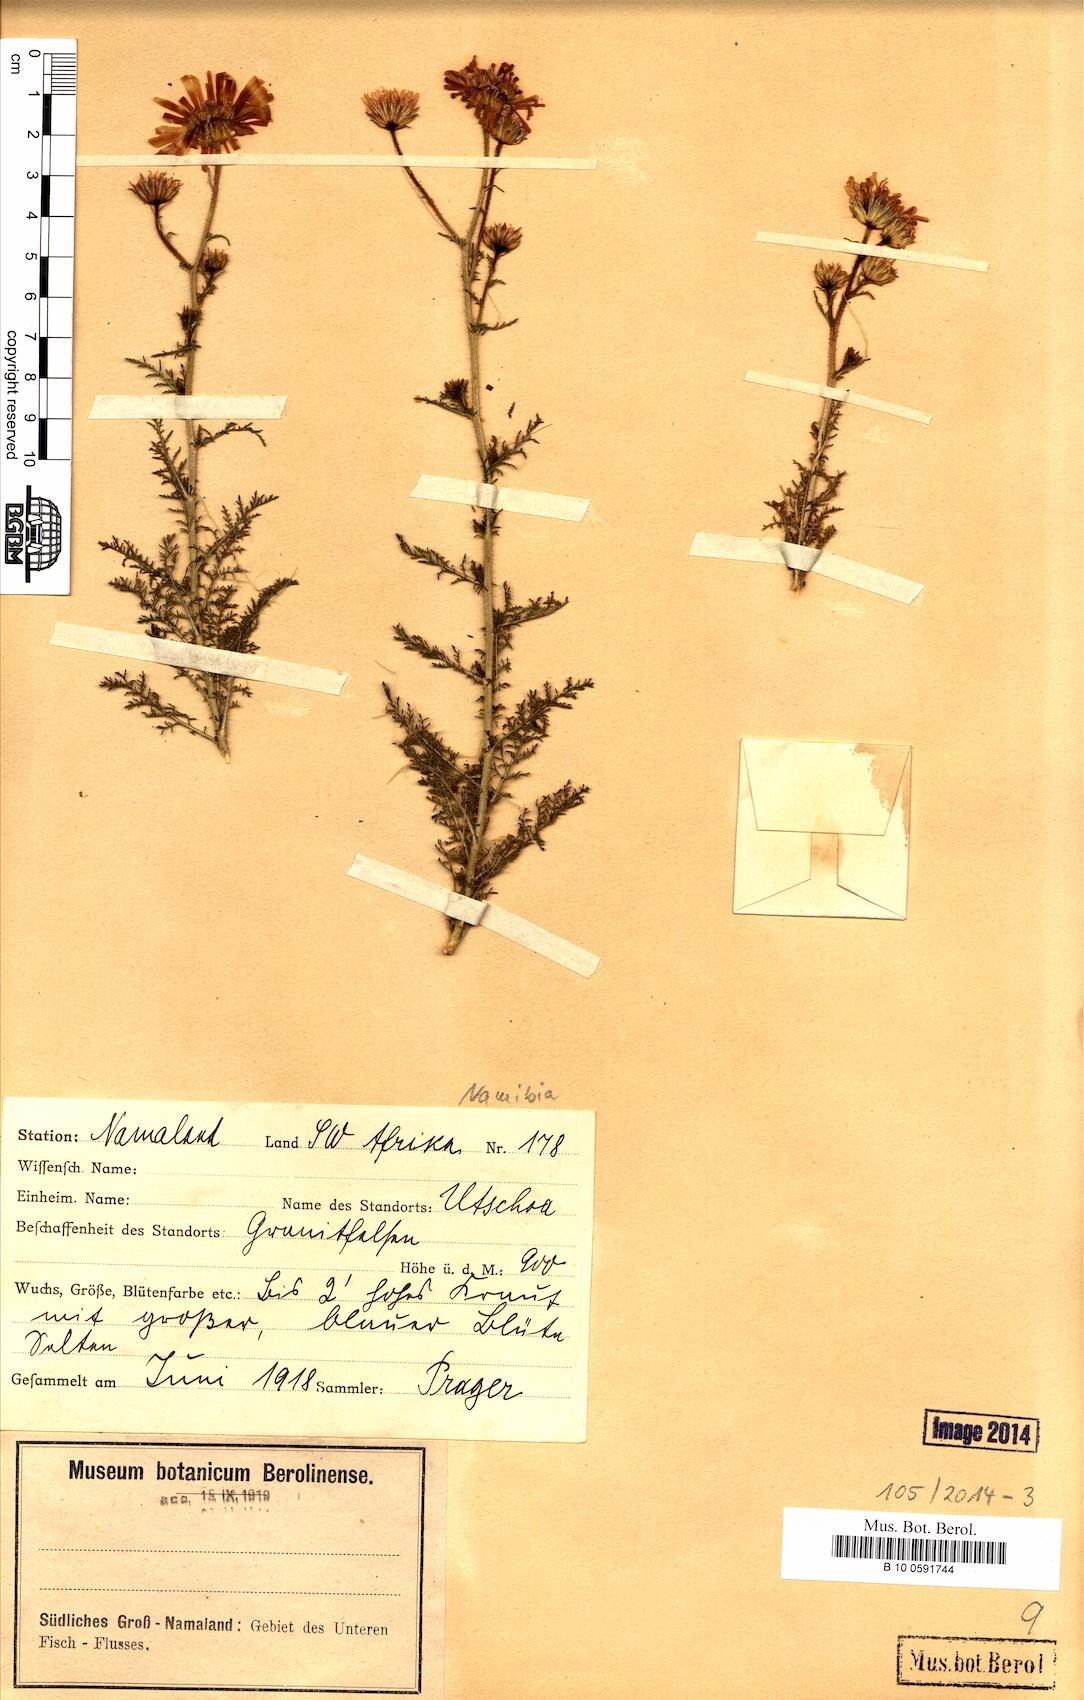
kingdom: Plantae
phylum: Tracheophyta
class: Magnoliopsida
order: Asterales
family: Asteraceae
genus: Garuleum
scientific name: Garuleum
